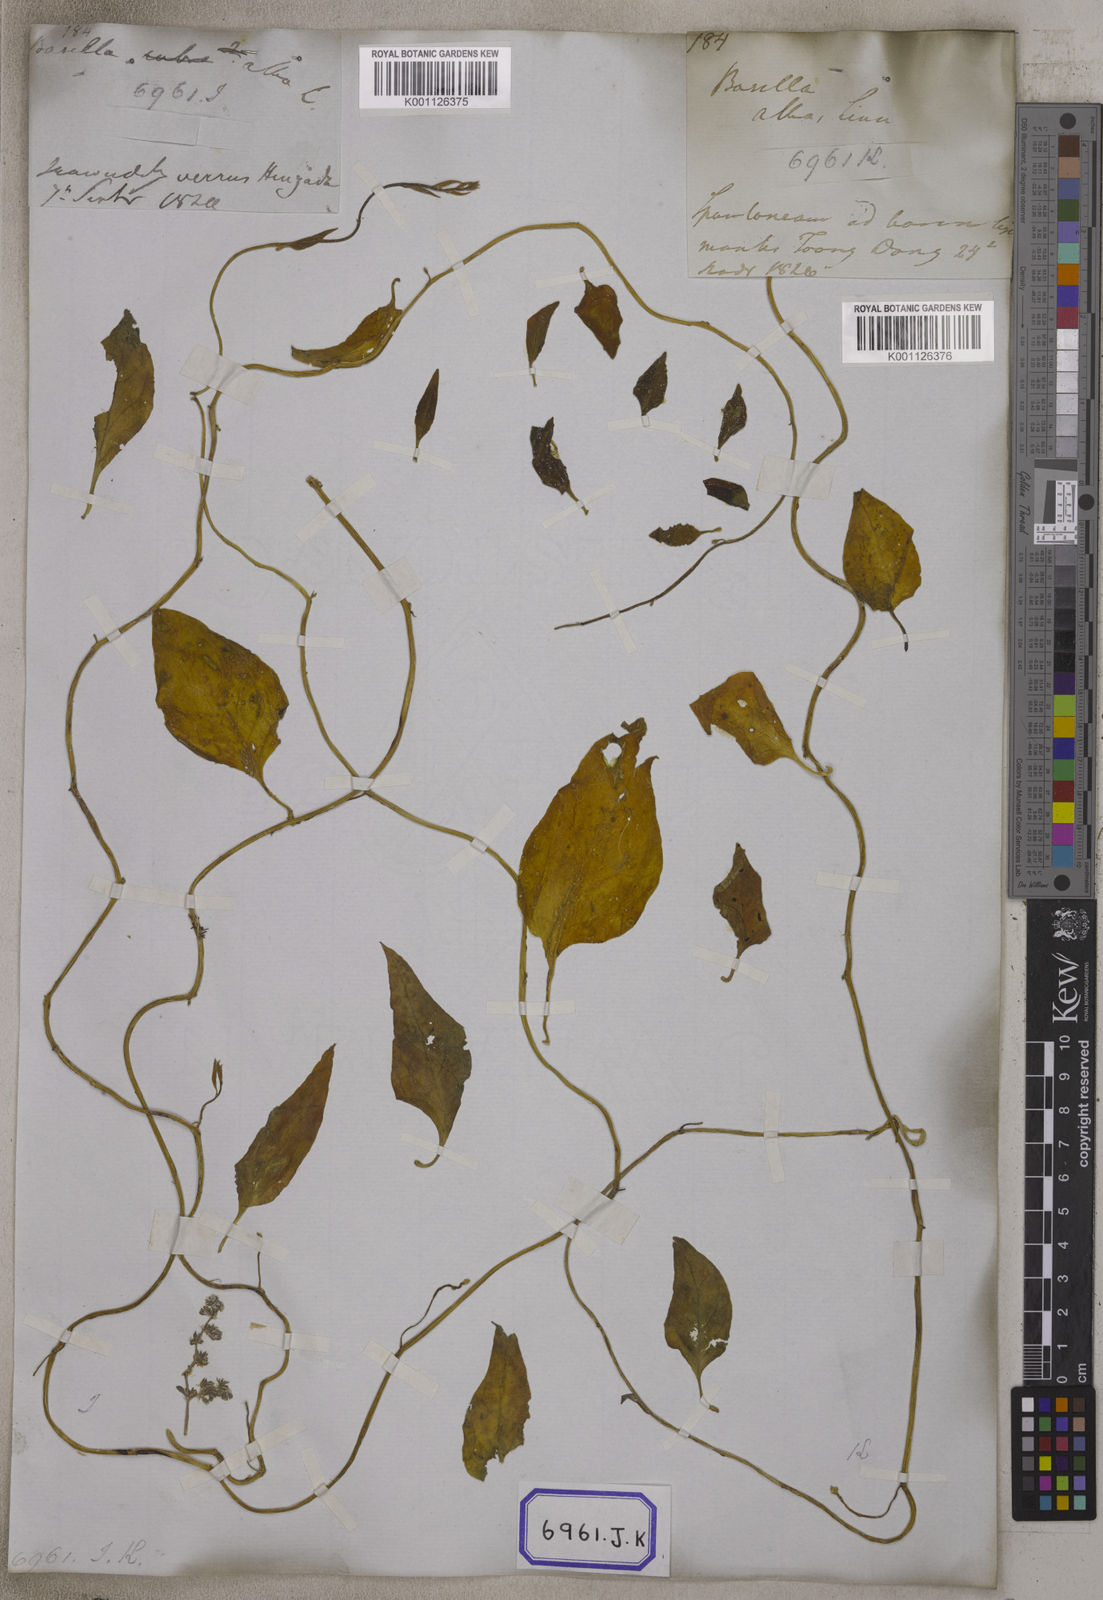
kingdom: Plantae
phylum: Tracheophyta
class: Magnoliopsida
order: Caryophyllales
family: Basellaceae
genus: Basella
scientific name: Basella alba
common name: Indian spinach
